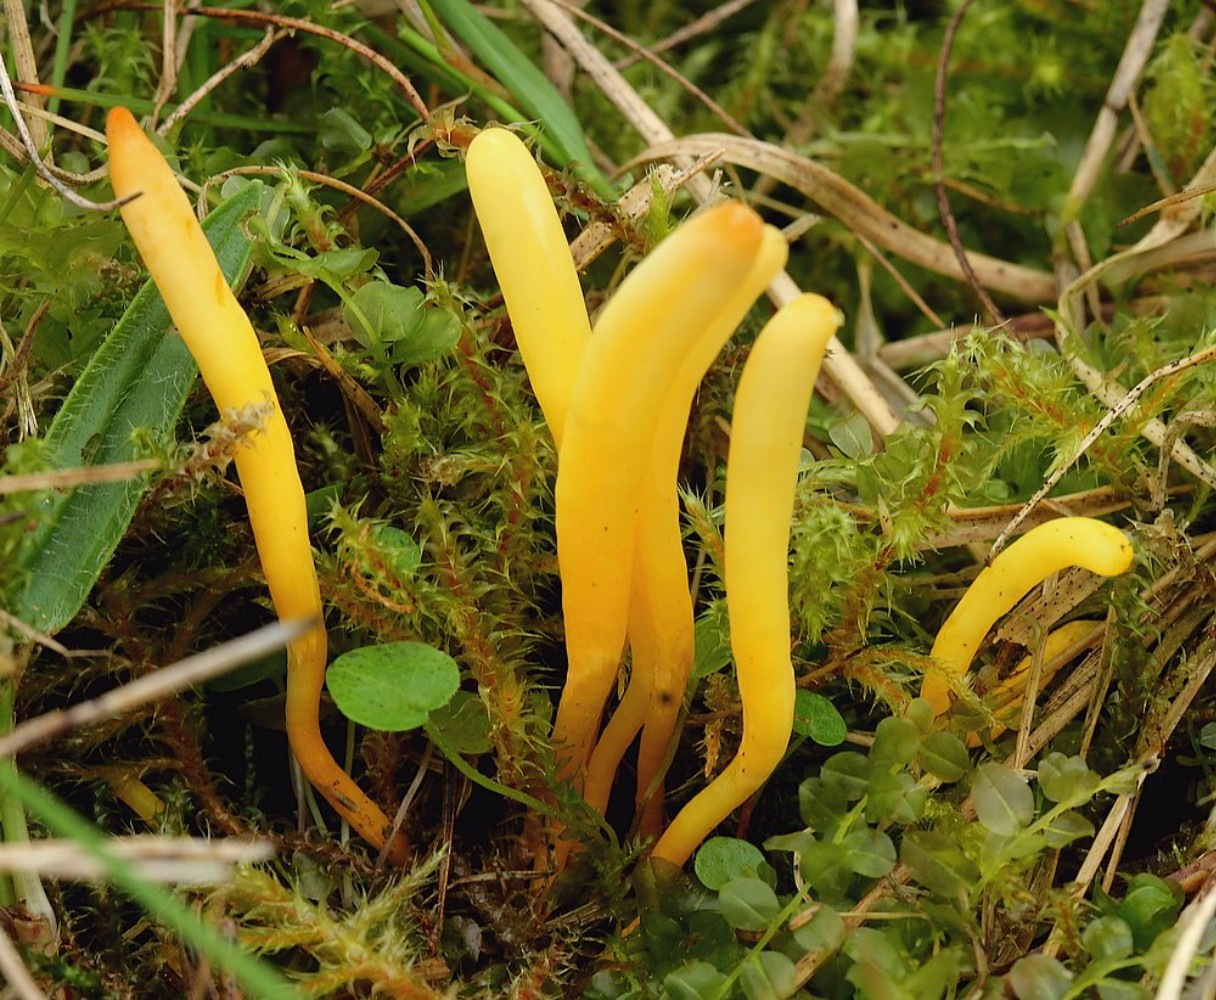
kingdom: Fungi
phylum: Basidiomycota
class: Agaricomycetes
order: Agaricales
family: Clavariaceae
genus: Clavulinopsis
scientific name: Clavulinopsis laeticolor
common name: flamme-køllesvamp
